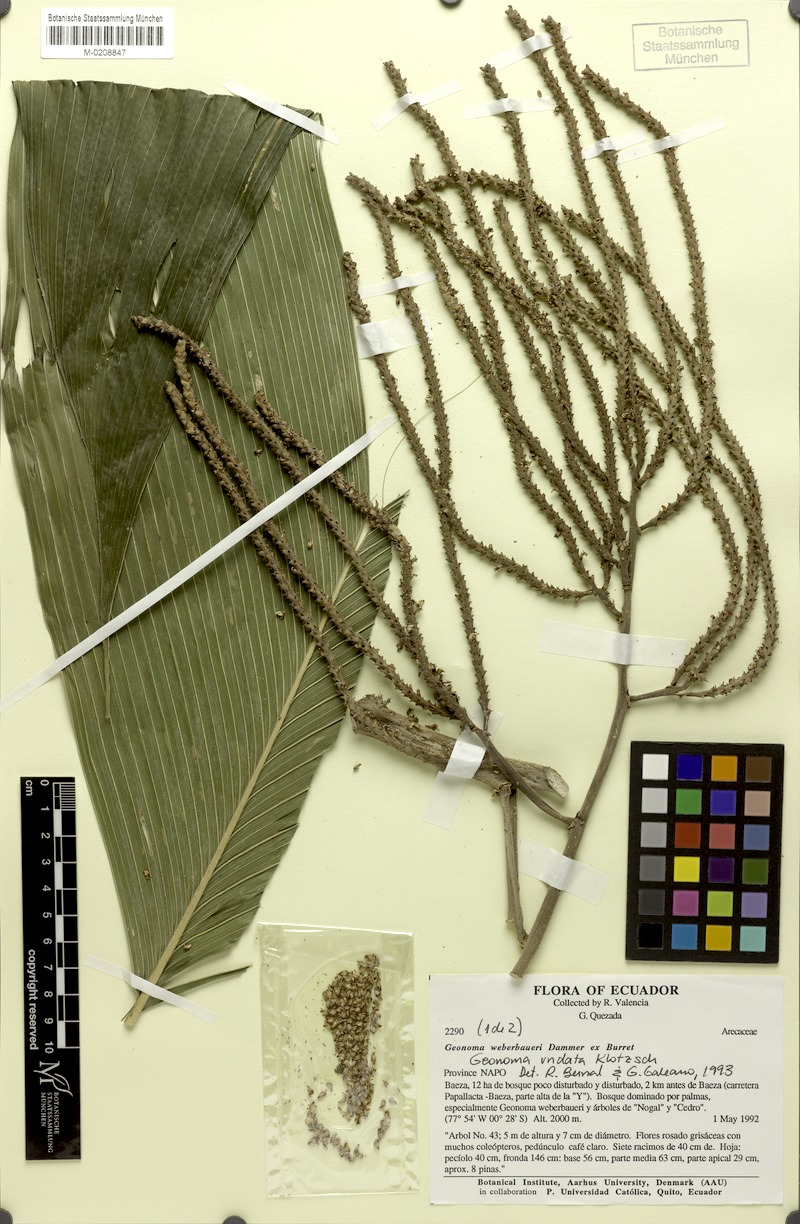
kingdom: Plantae
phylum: Tracheophyta
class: Liliopsida
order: Arecales
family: Arecaceae
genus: Geonoma
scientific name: Geonoma undata
